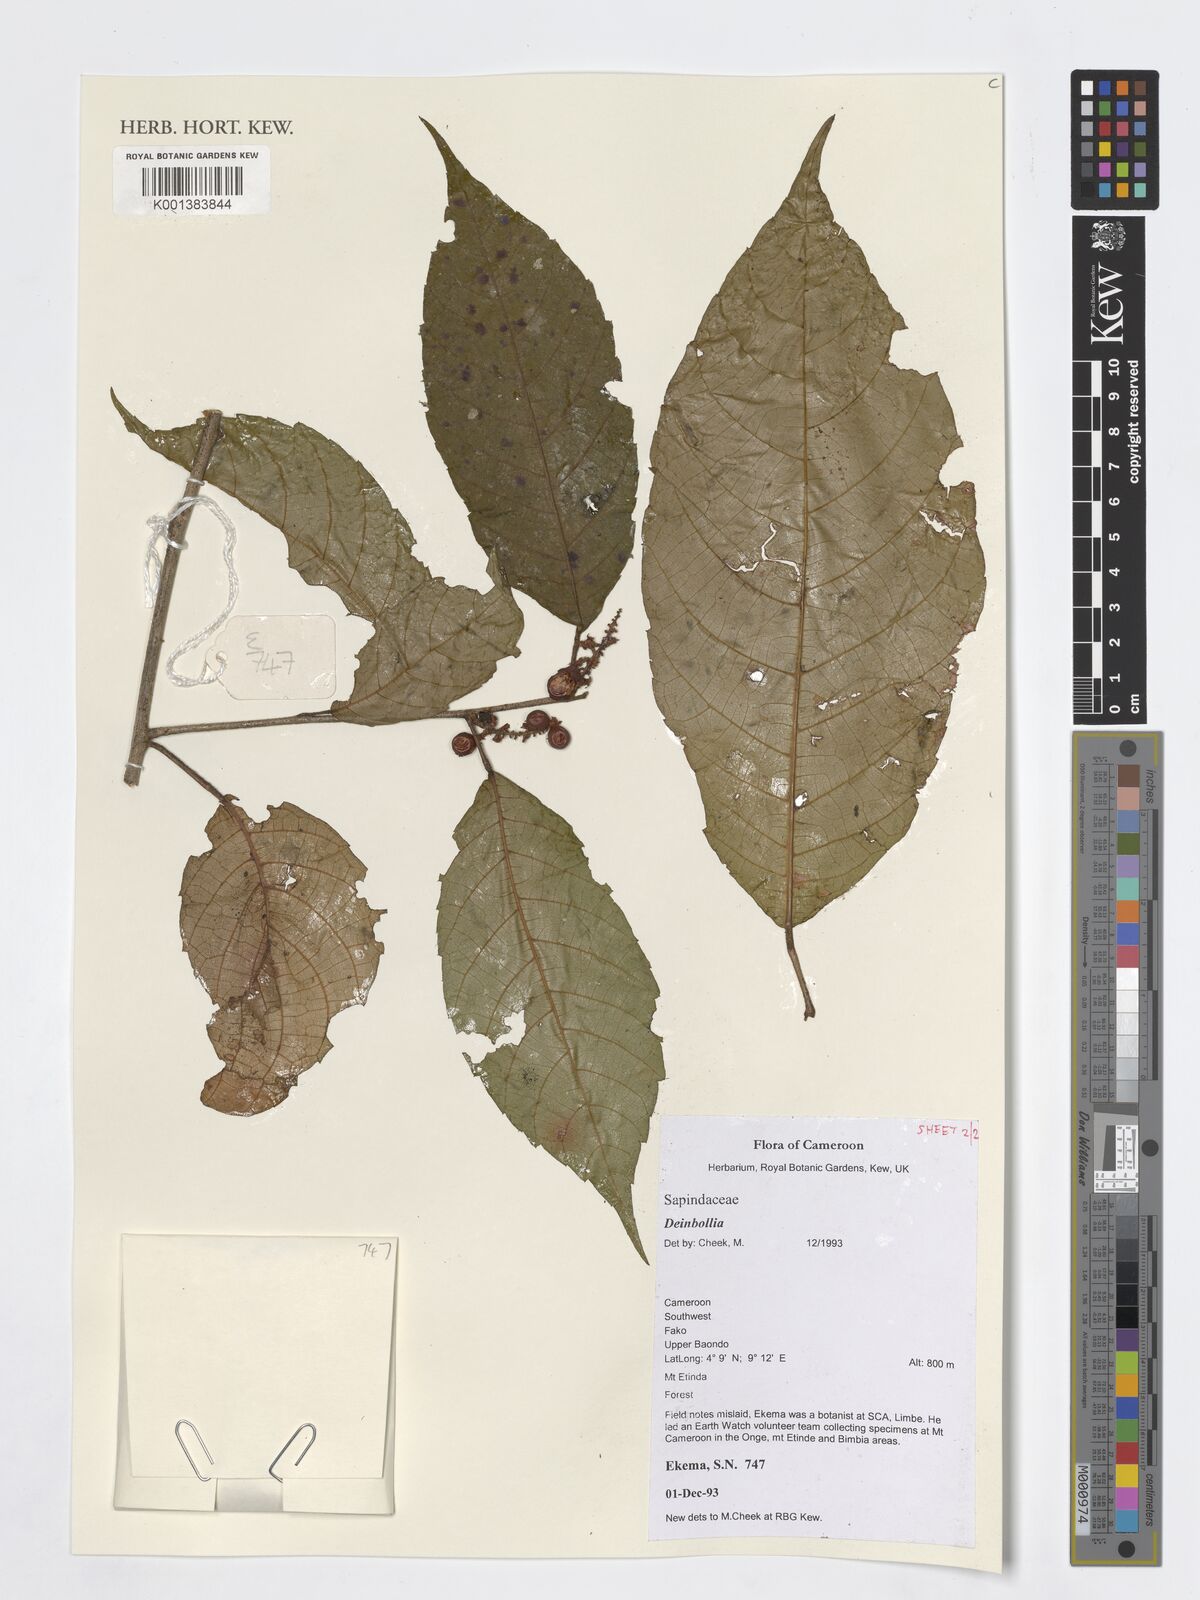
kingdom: Plantae
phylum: Tracheophyta
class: Magnoliopsida
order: Sapindales
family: Sapindaceae
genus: Deinbollia
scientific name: Deinbollia
